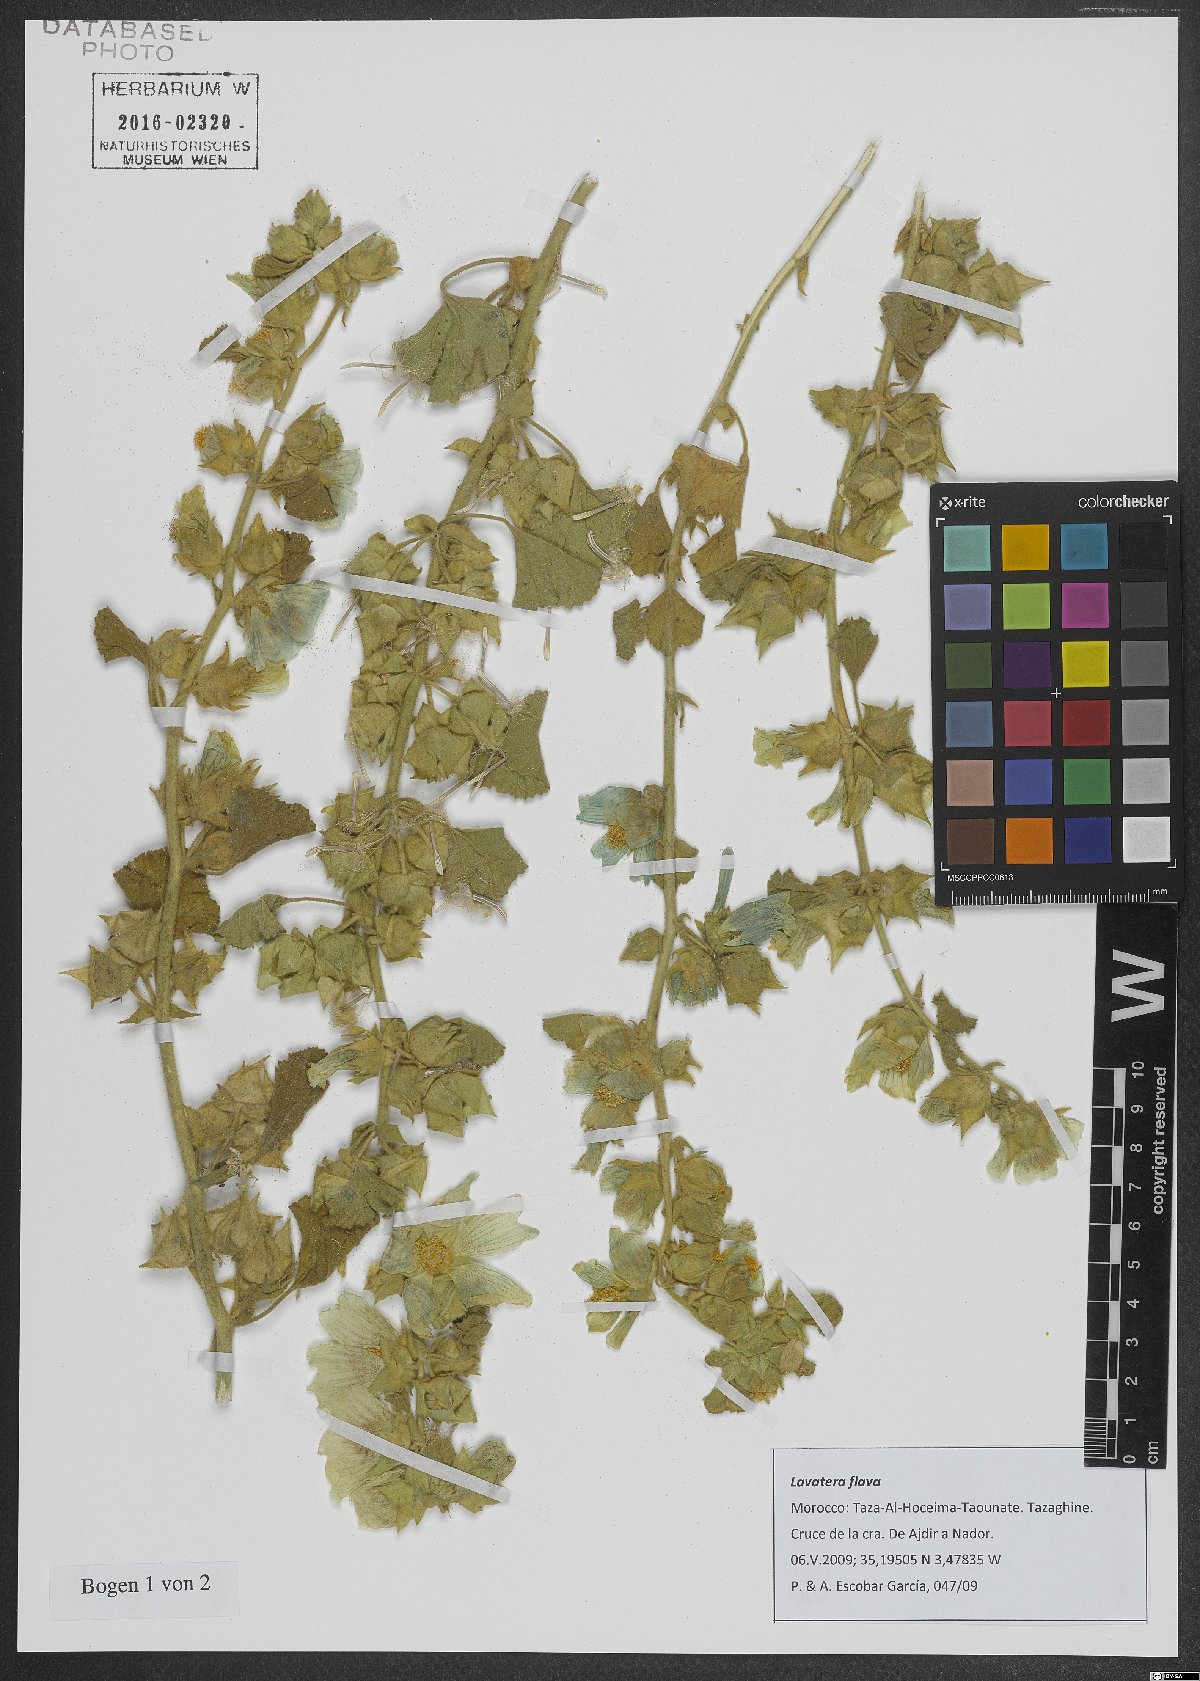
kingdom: Plantae
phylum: Tracheophyta
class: Magnoliopsida
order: Malvales
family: Malvaceae
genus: Malva
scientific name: Malva flava
